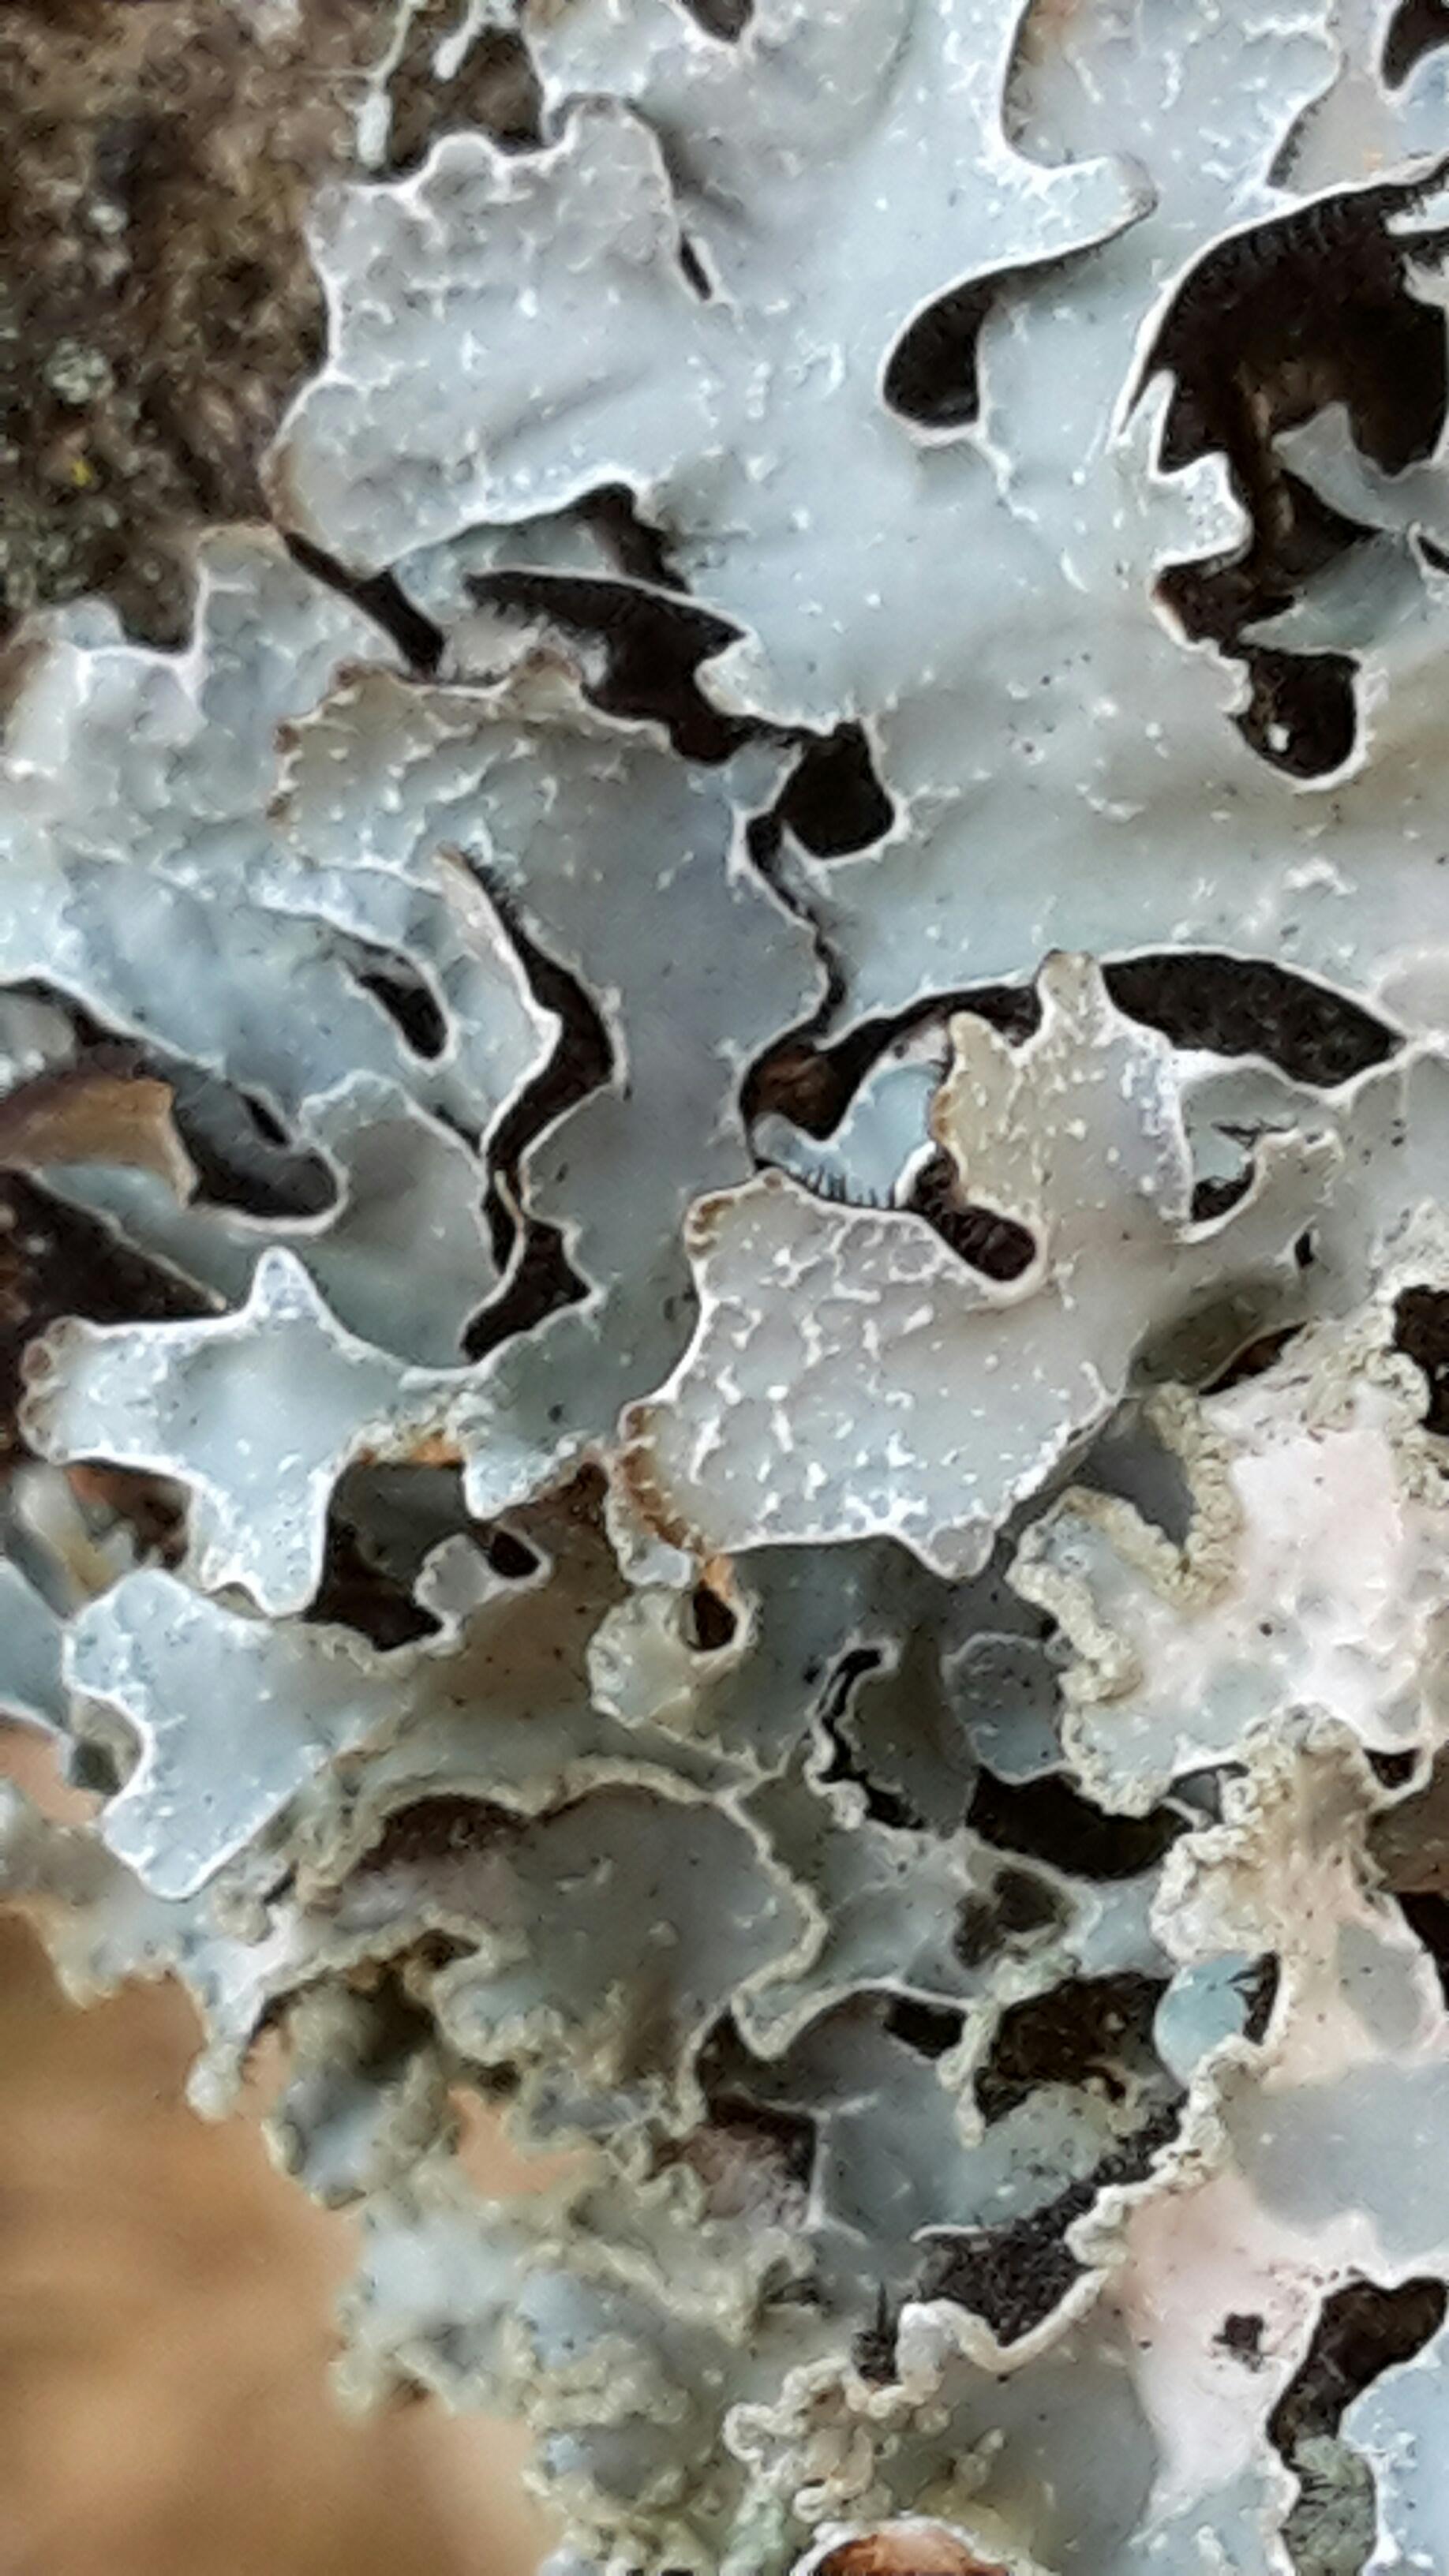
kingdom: Fungi
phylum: Ascomycota
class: Lecanoromycetes
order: Lecanorales
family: Parmeliaceae
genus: Parmelia
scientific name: Parmelia sulcata
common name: rynket skållav
